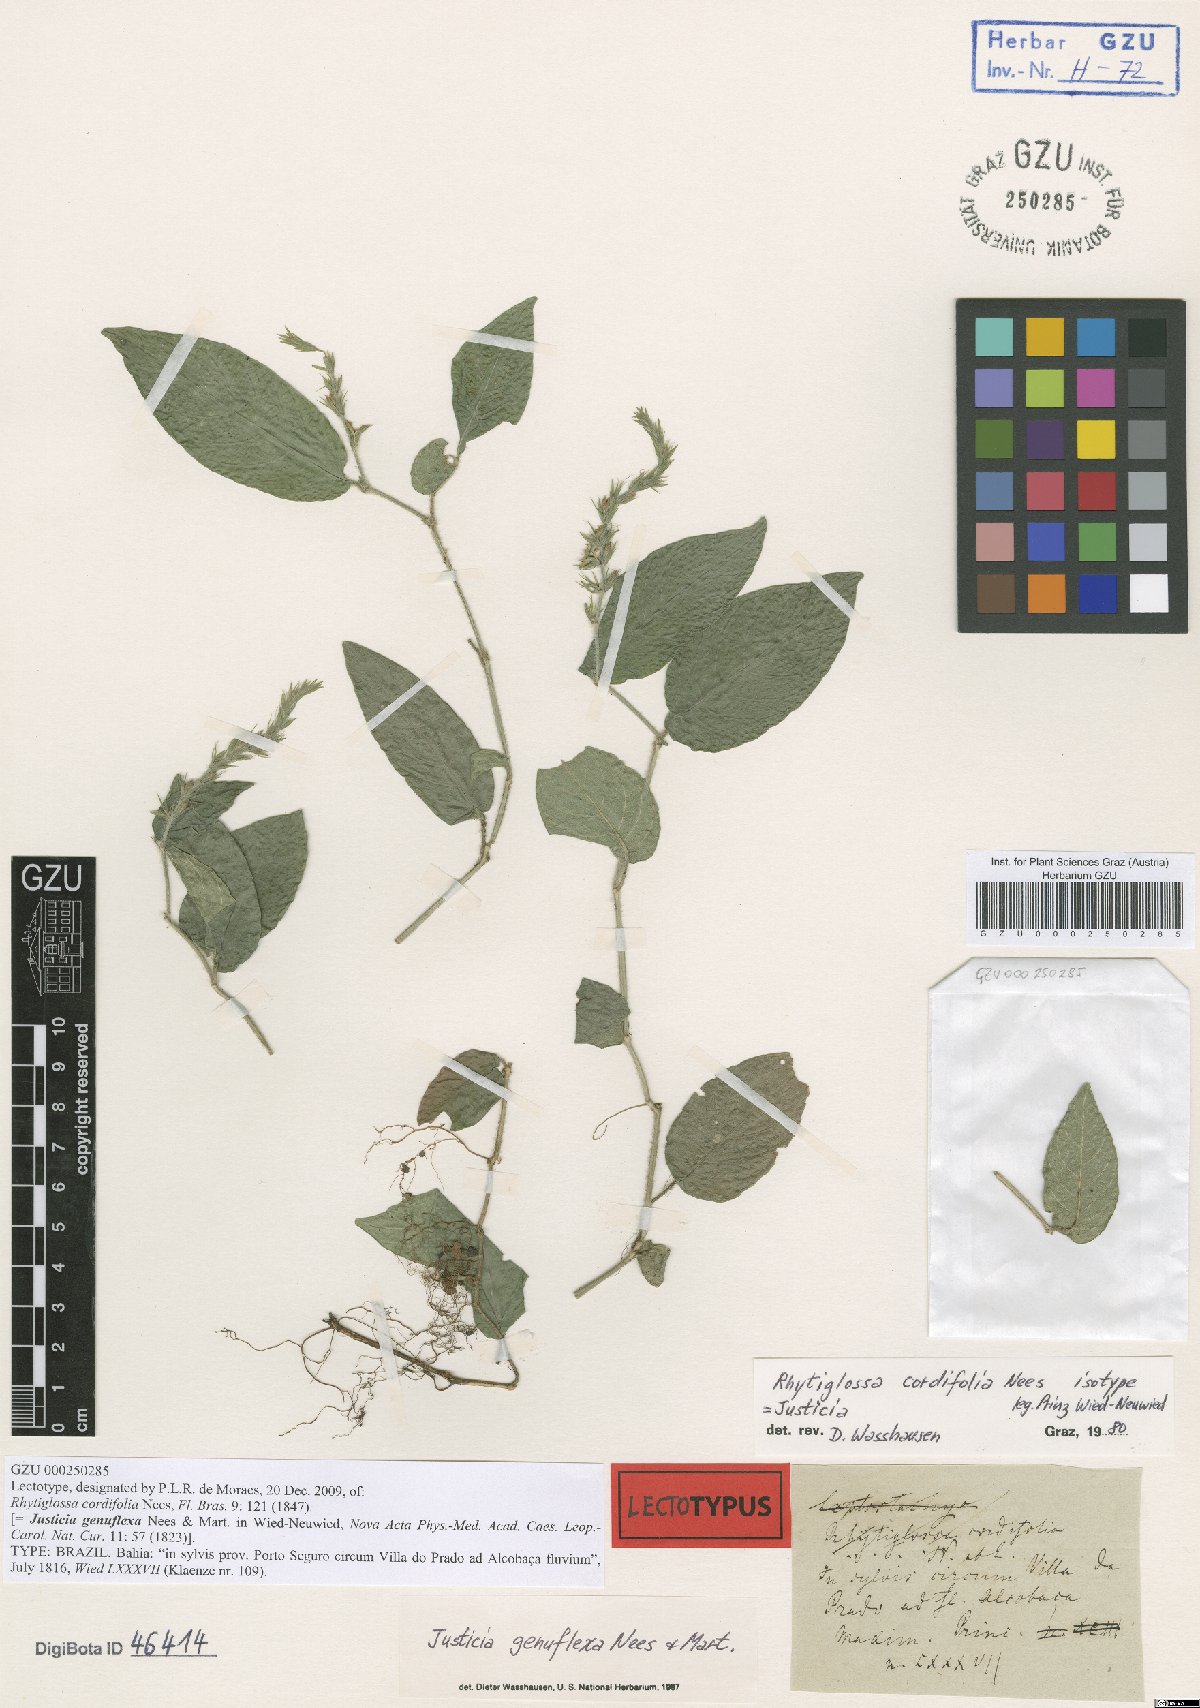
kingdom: Plantae
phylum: Tracheophyta
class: Magnoliopsida
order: Lamiales
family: Acanthaceae
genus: Justicia
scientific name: Justicia brasiliana
